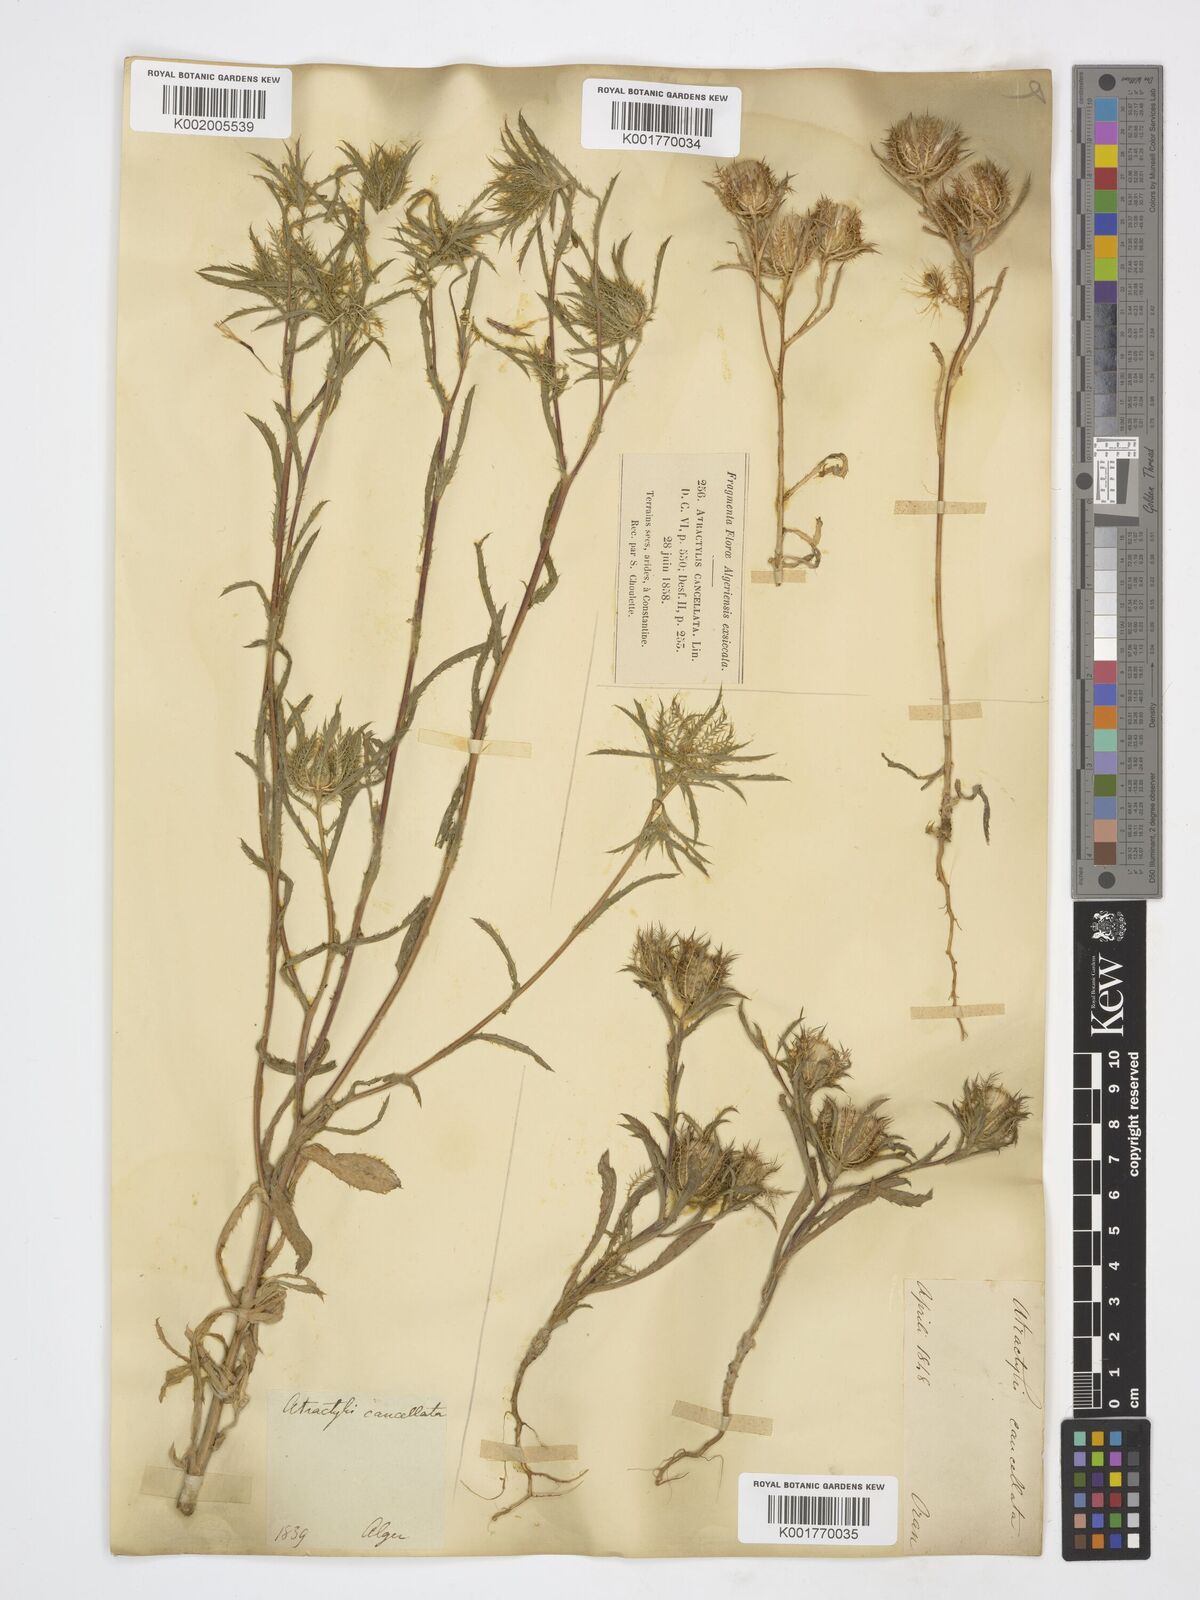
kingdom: Plantae
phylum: Tracheophyta
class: Magnoliopsida
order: Asterales
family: Asteraceae
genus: Atractylis
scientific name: Atractylis cancellata
